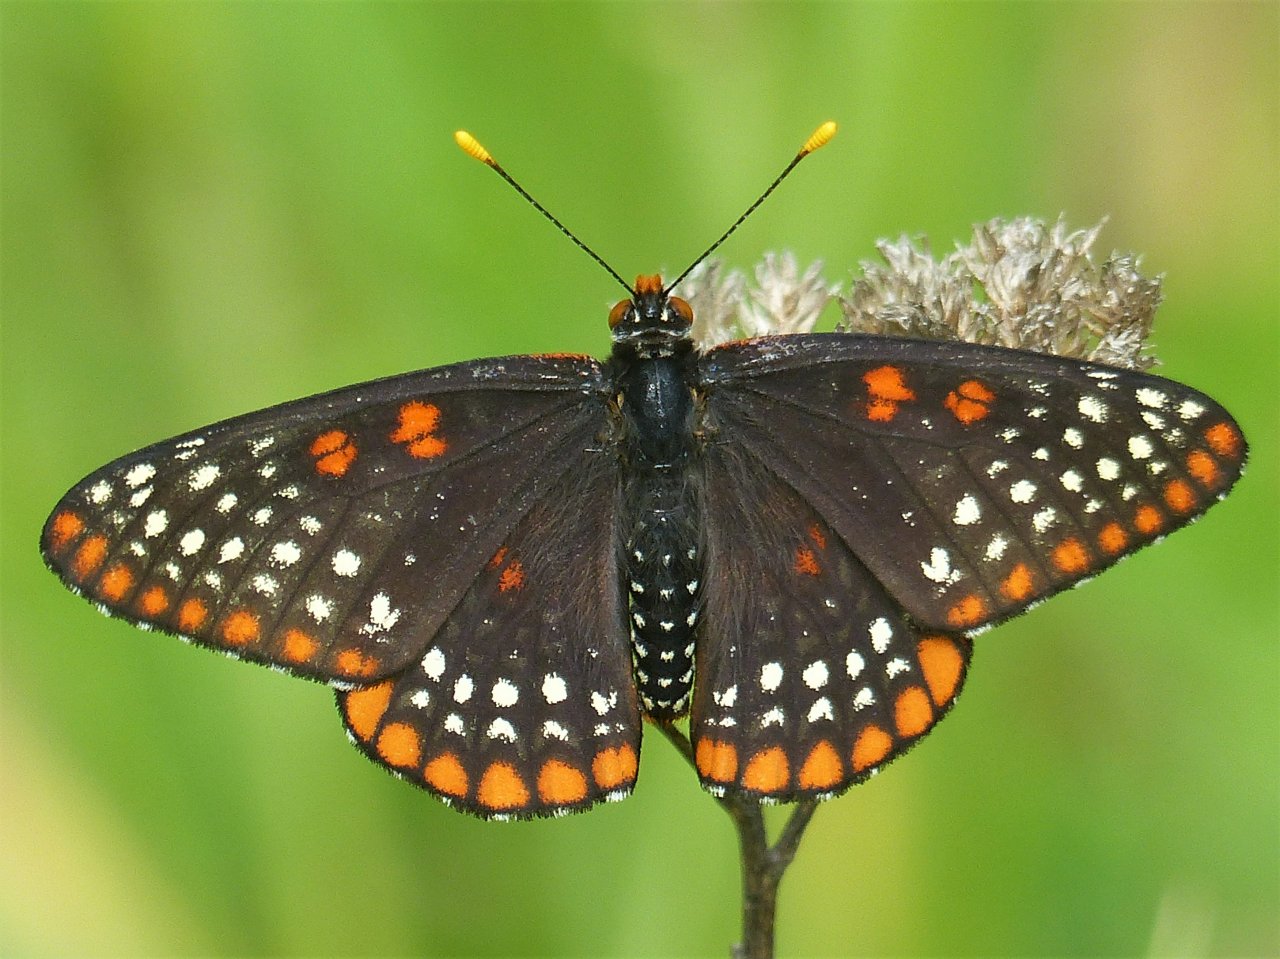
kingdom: Animalia
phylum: Arthropoda
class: Insecta
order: Lepidoptera
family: Nymphalidae
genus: Euphydryas
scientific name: Euphydryas phaeton
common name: Baltimore Checkerspot
